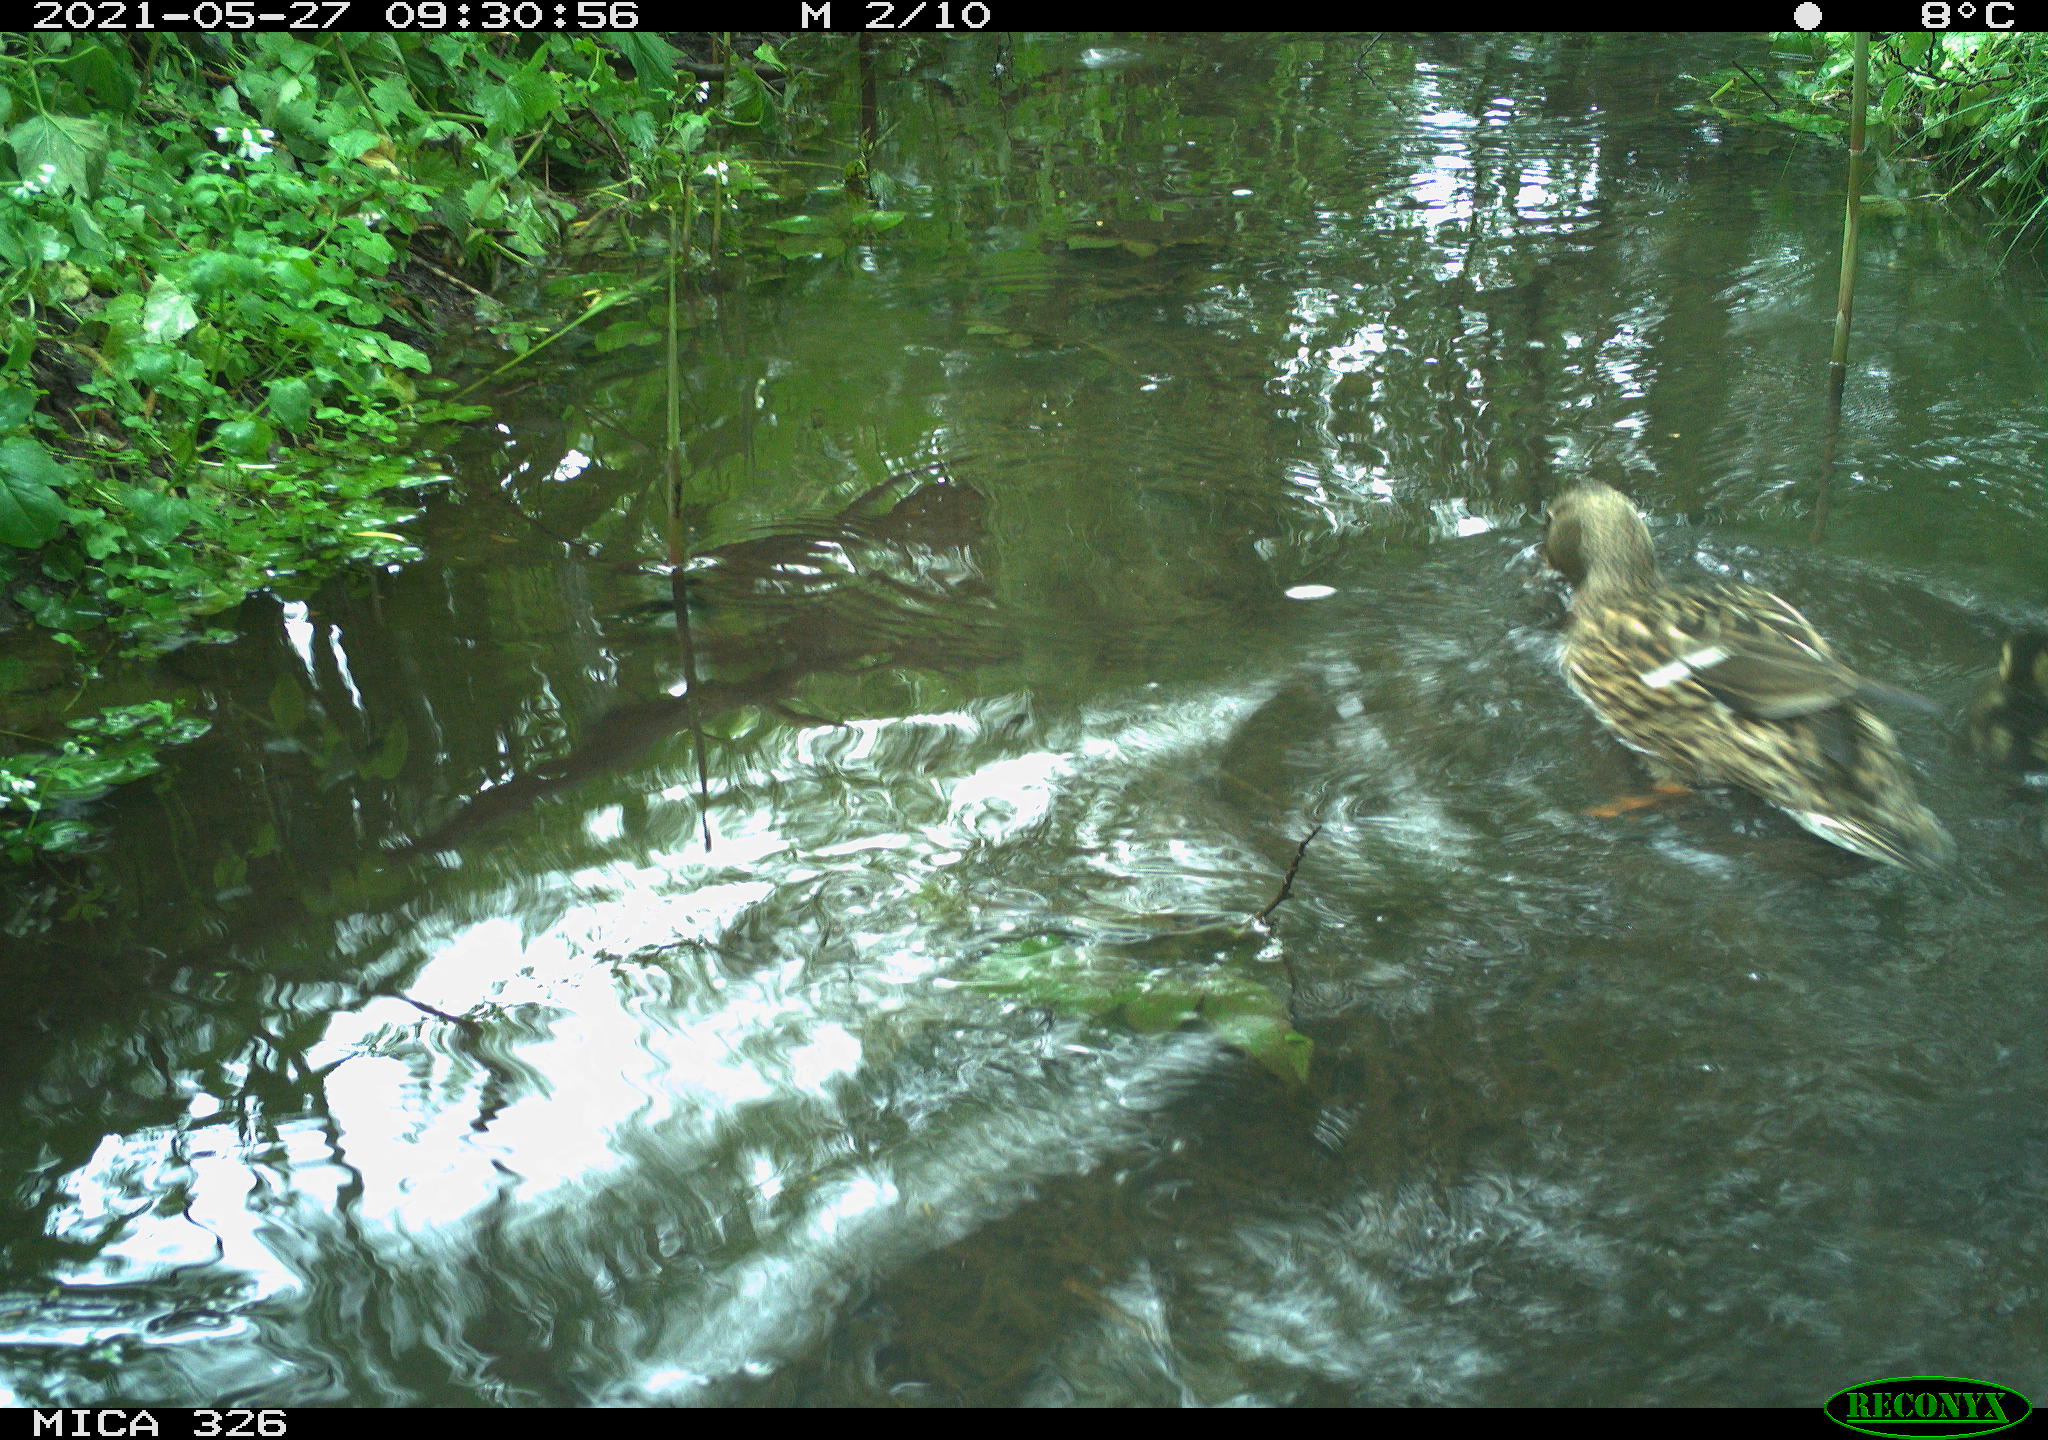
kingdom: Animalia
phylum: Chordata
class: Aves
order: Anseriformes
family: Anatidae
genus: Anas
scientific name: Anas platyrhynchos
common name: Mallard
